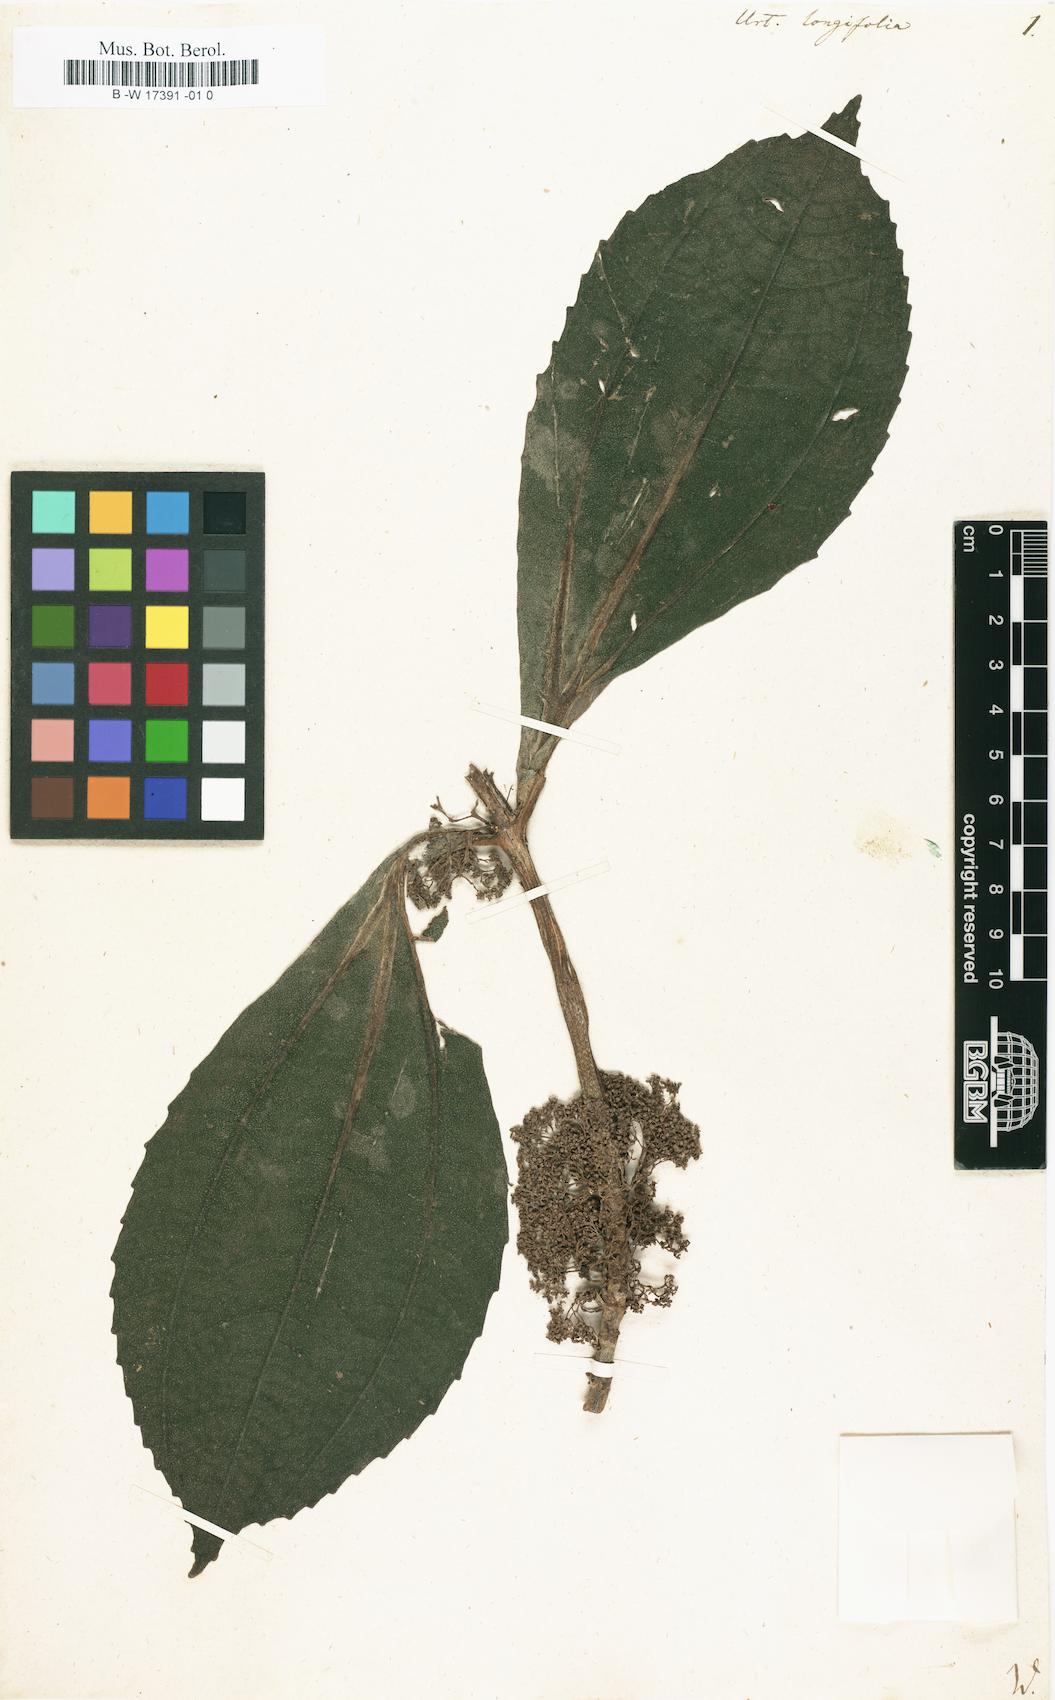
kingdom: Plantae
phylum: Tracheophyta
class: Magnoliopsida
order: Rosales
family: Urticaceae
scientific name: Urticaceae
